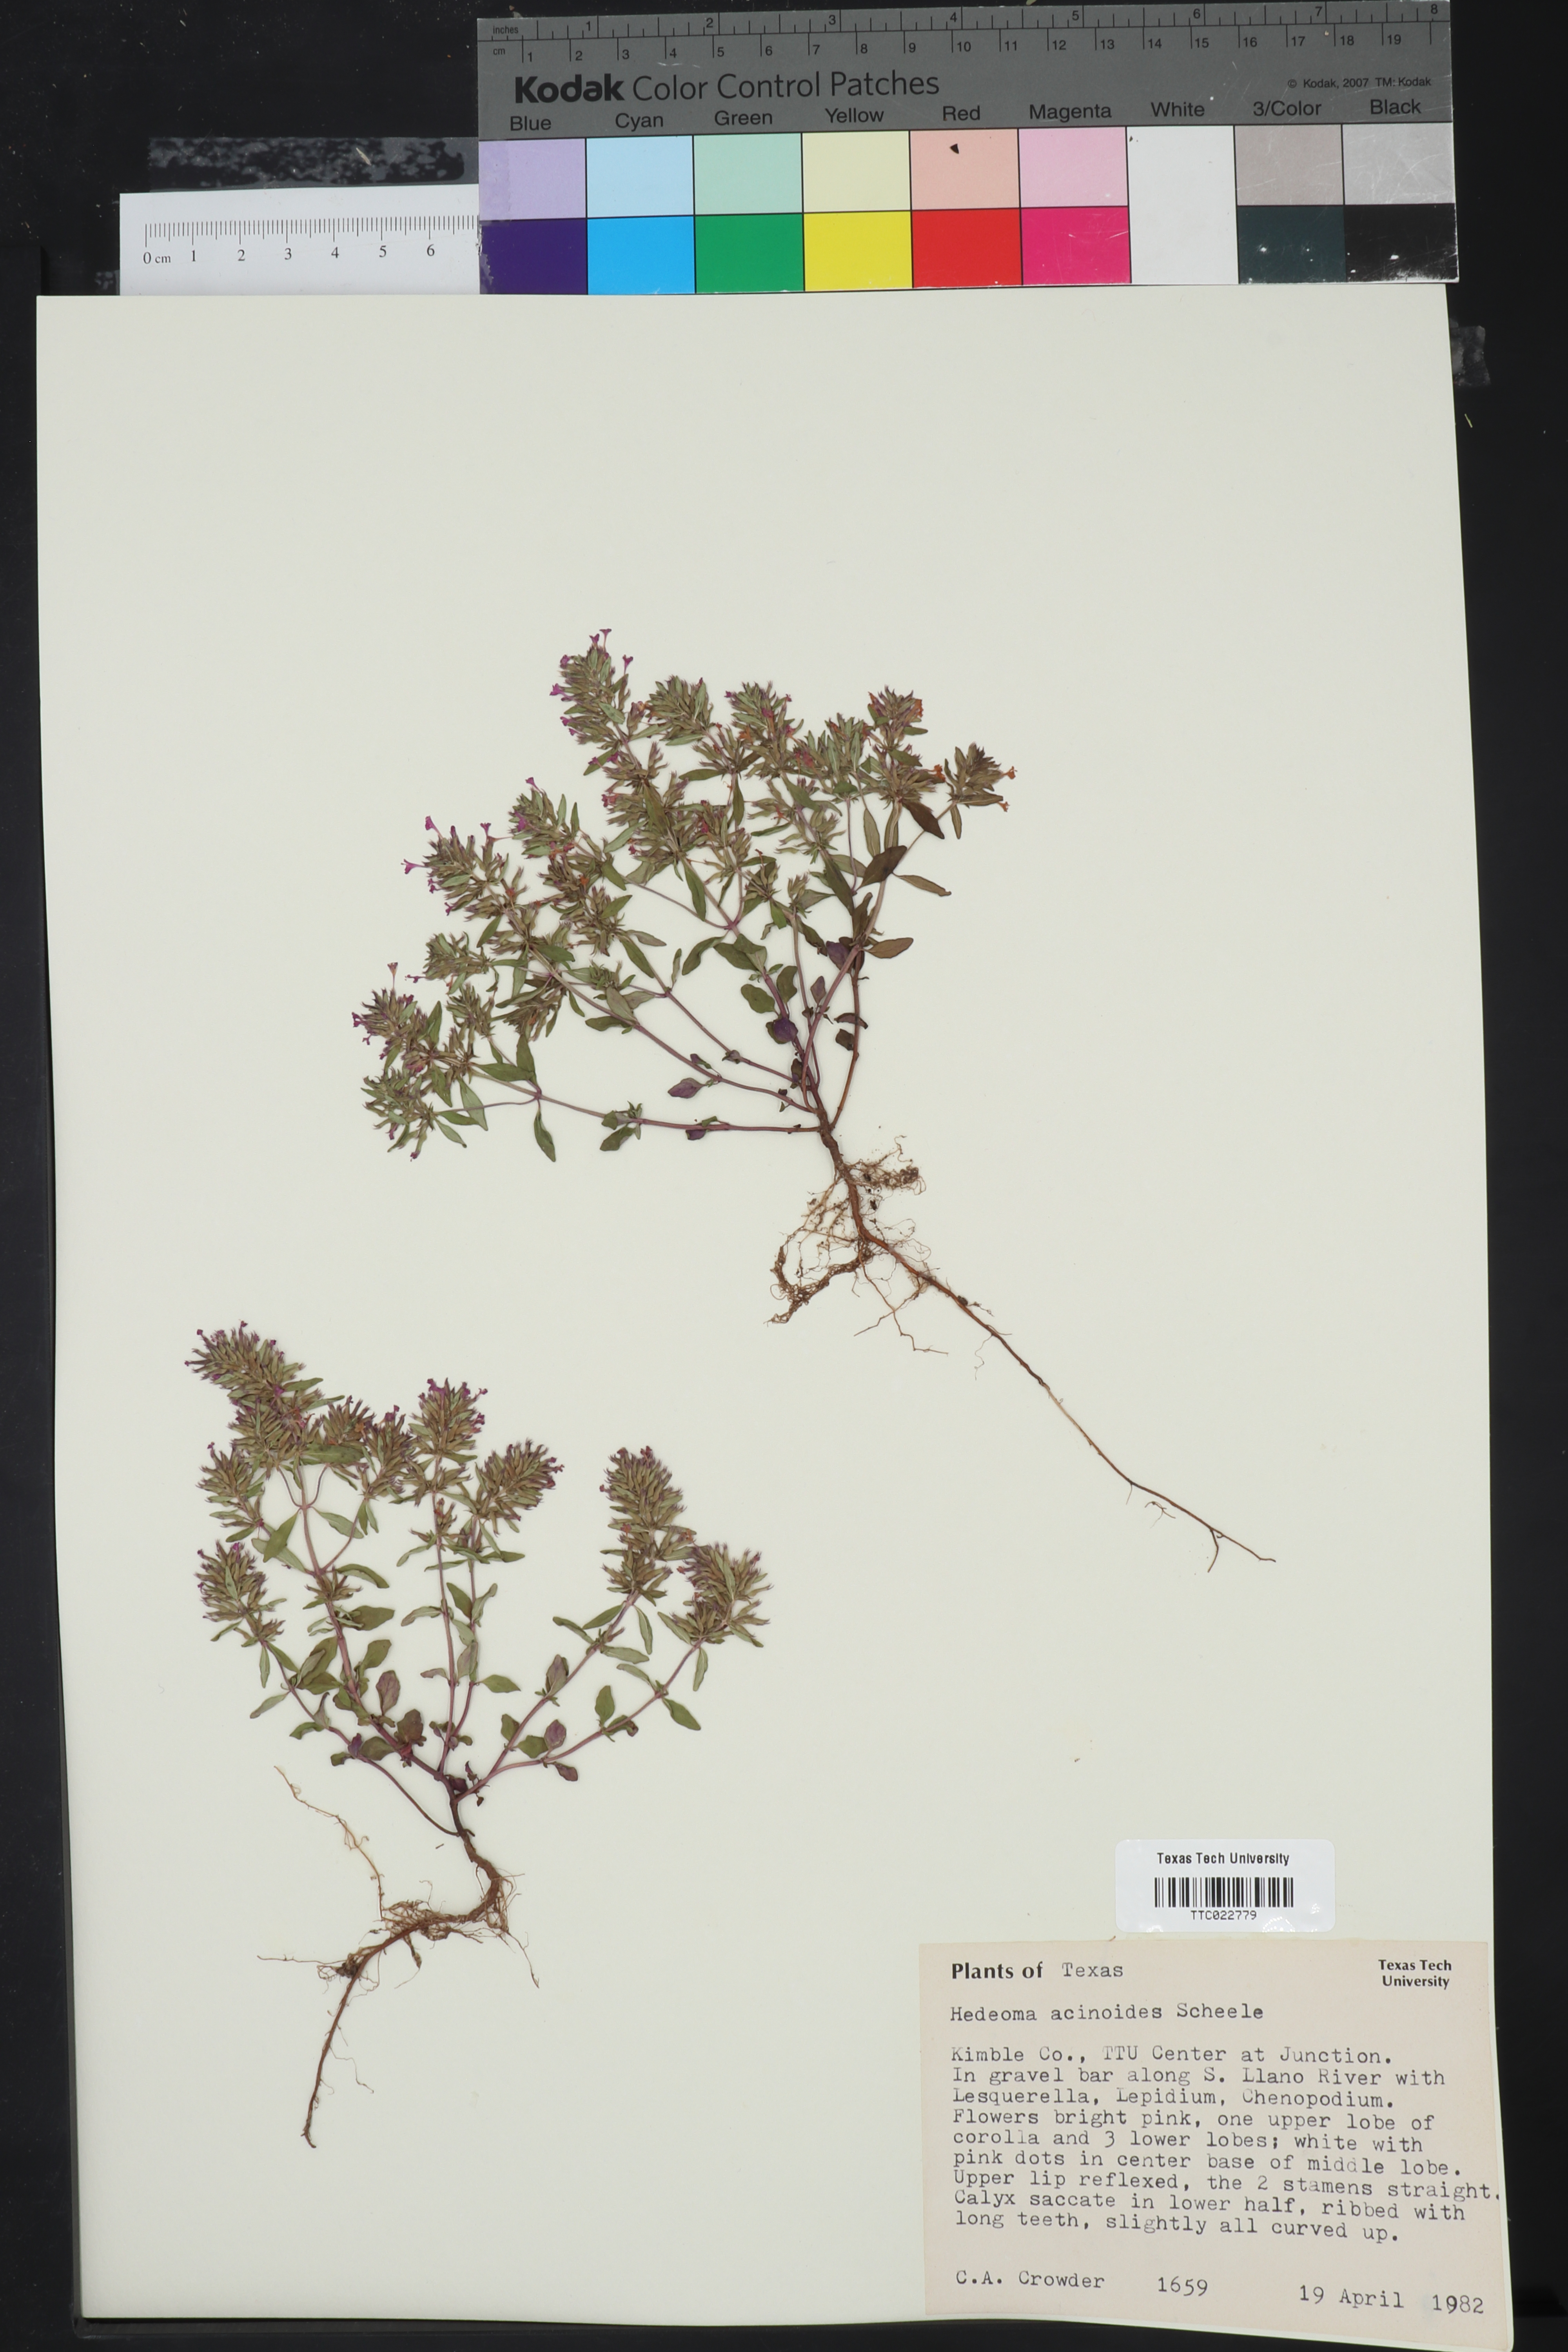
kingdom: Plantae
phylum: Tracheophyta
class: Magnoliopsida
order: Lamiales
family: Lamiaceae
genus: Hedeoma
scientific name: Hedeoma acinoides
